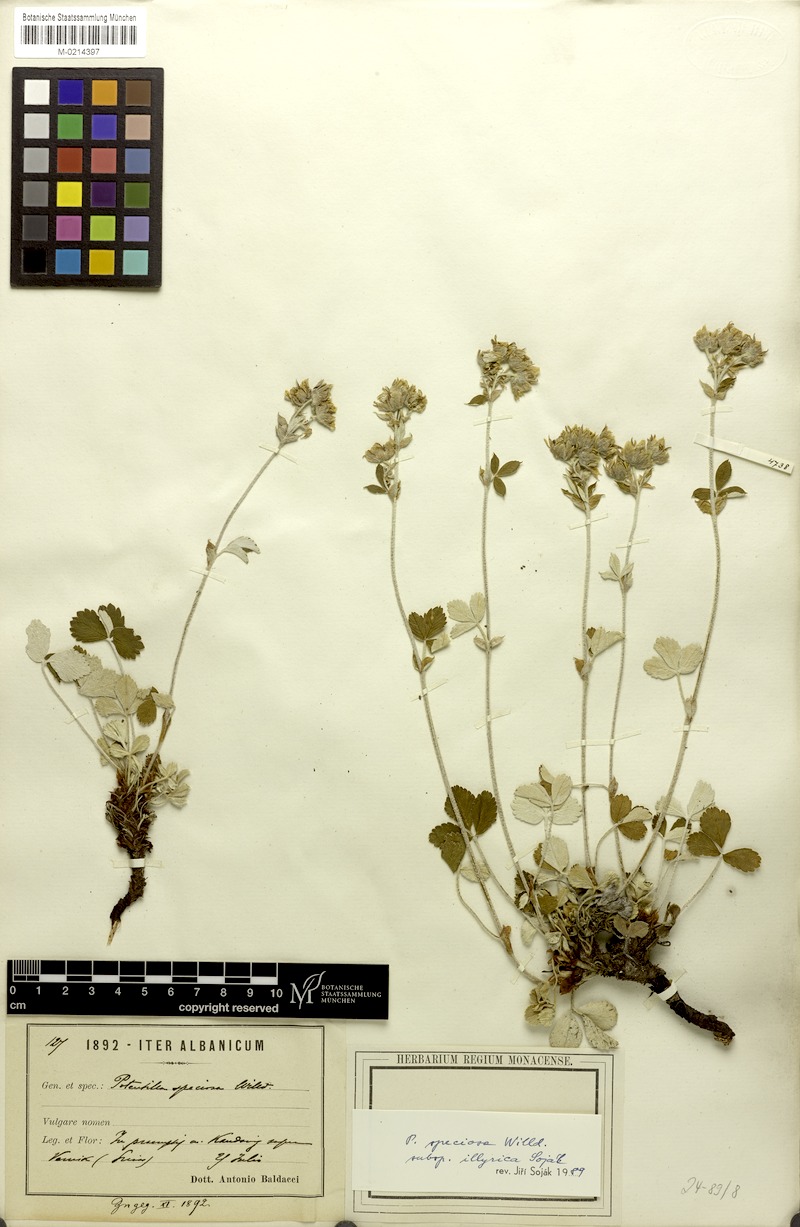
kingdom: Plantae
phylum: Tracheophyta
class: Magnoliopsida
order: Rosales
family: Rosaceae
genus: Potentilla
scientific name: Potentilla speciosa
